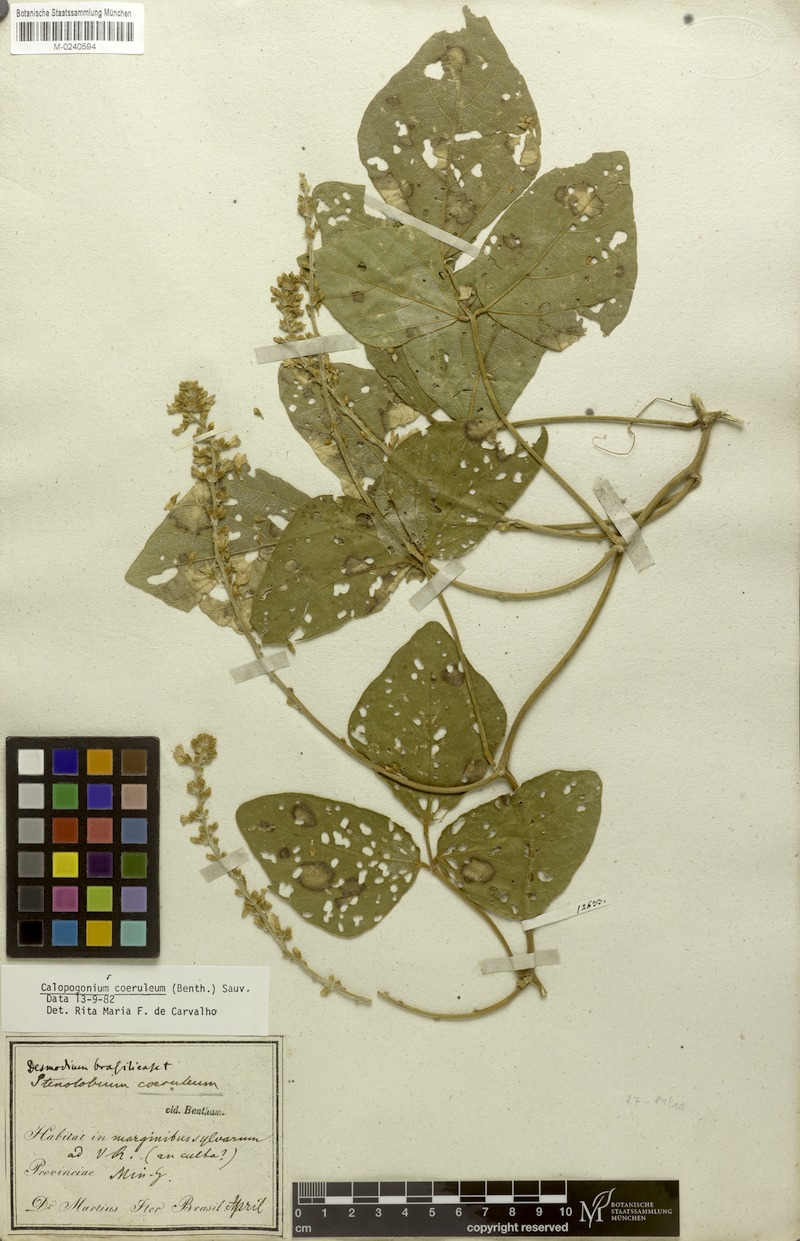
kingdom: Plantae
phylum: Tracheophyta
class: Magnoliopsida
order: Fabales
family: Fabaceae
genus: Calopogonium
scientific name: Calopogonium caeruleum
